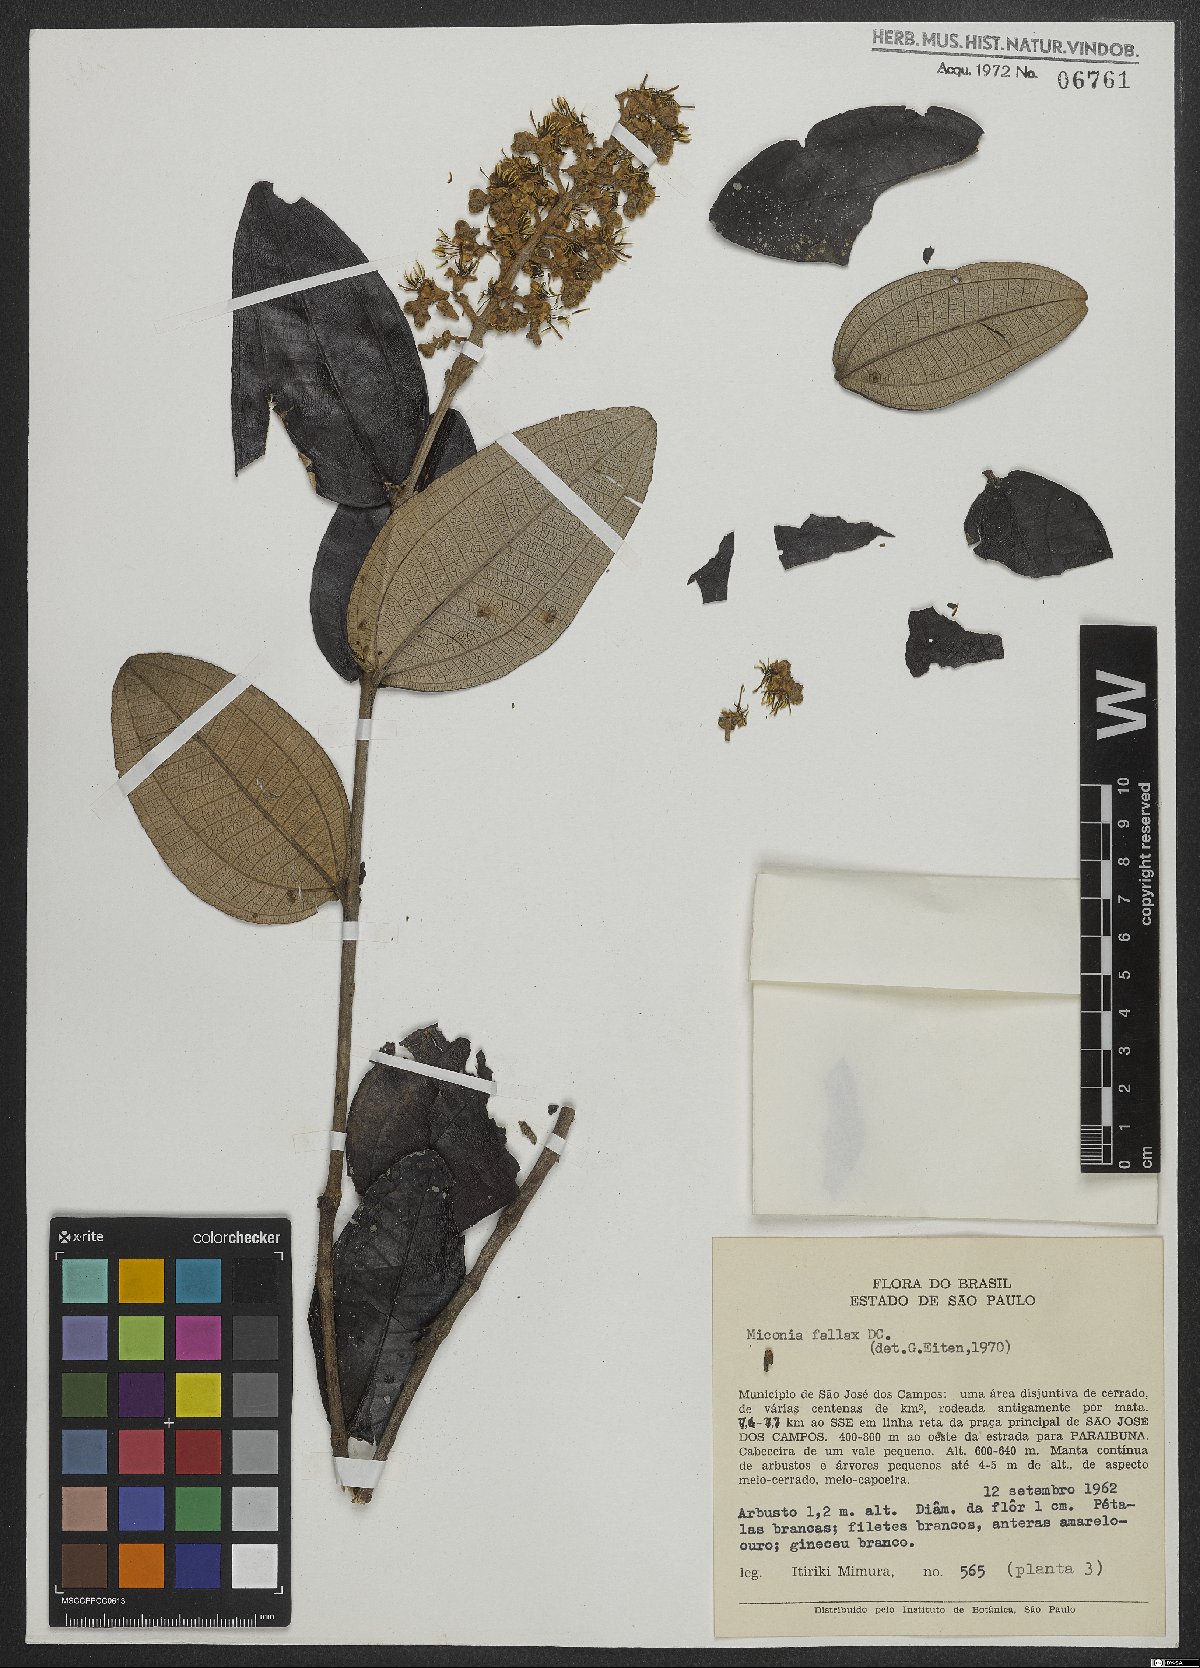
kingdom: Plantae
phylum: Tracheophyta
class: Magnoliopsida
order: Myrtales
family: Melastomataceae
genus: Miconia
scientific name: Miconia fallax
